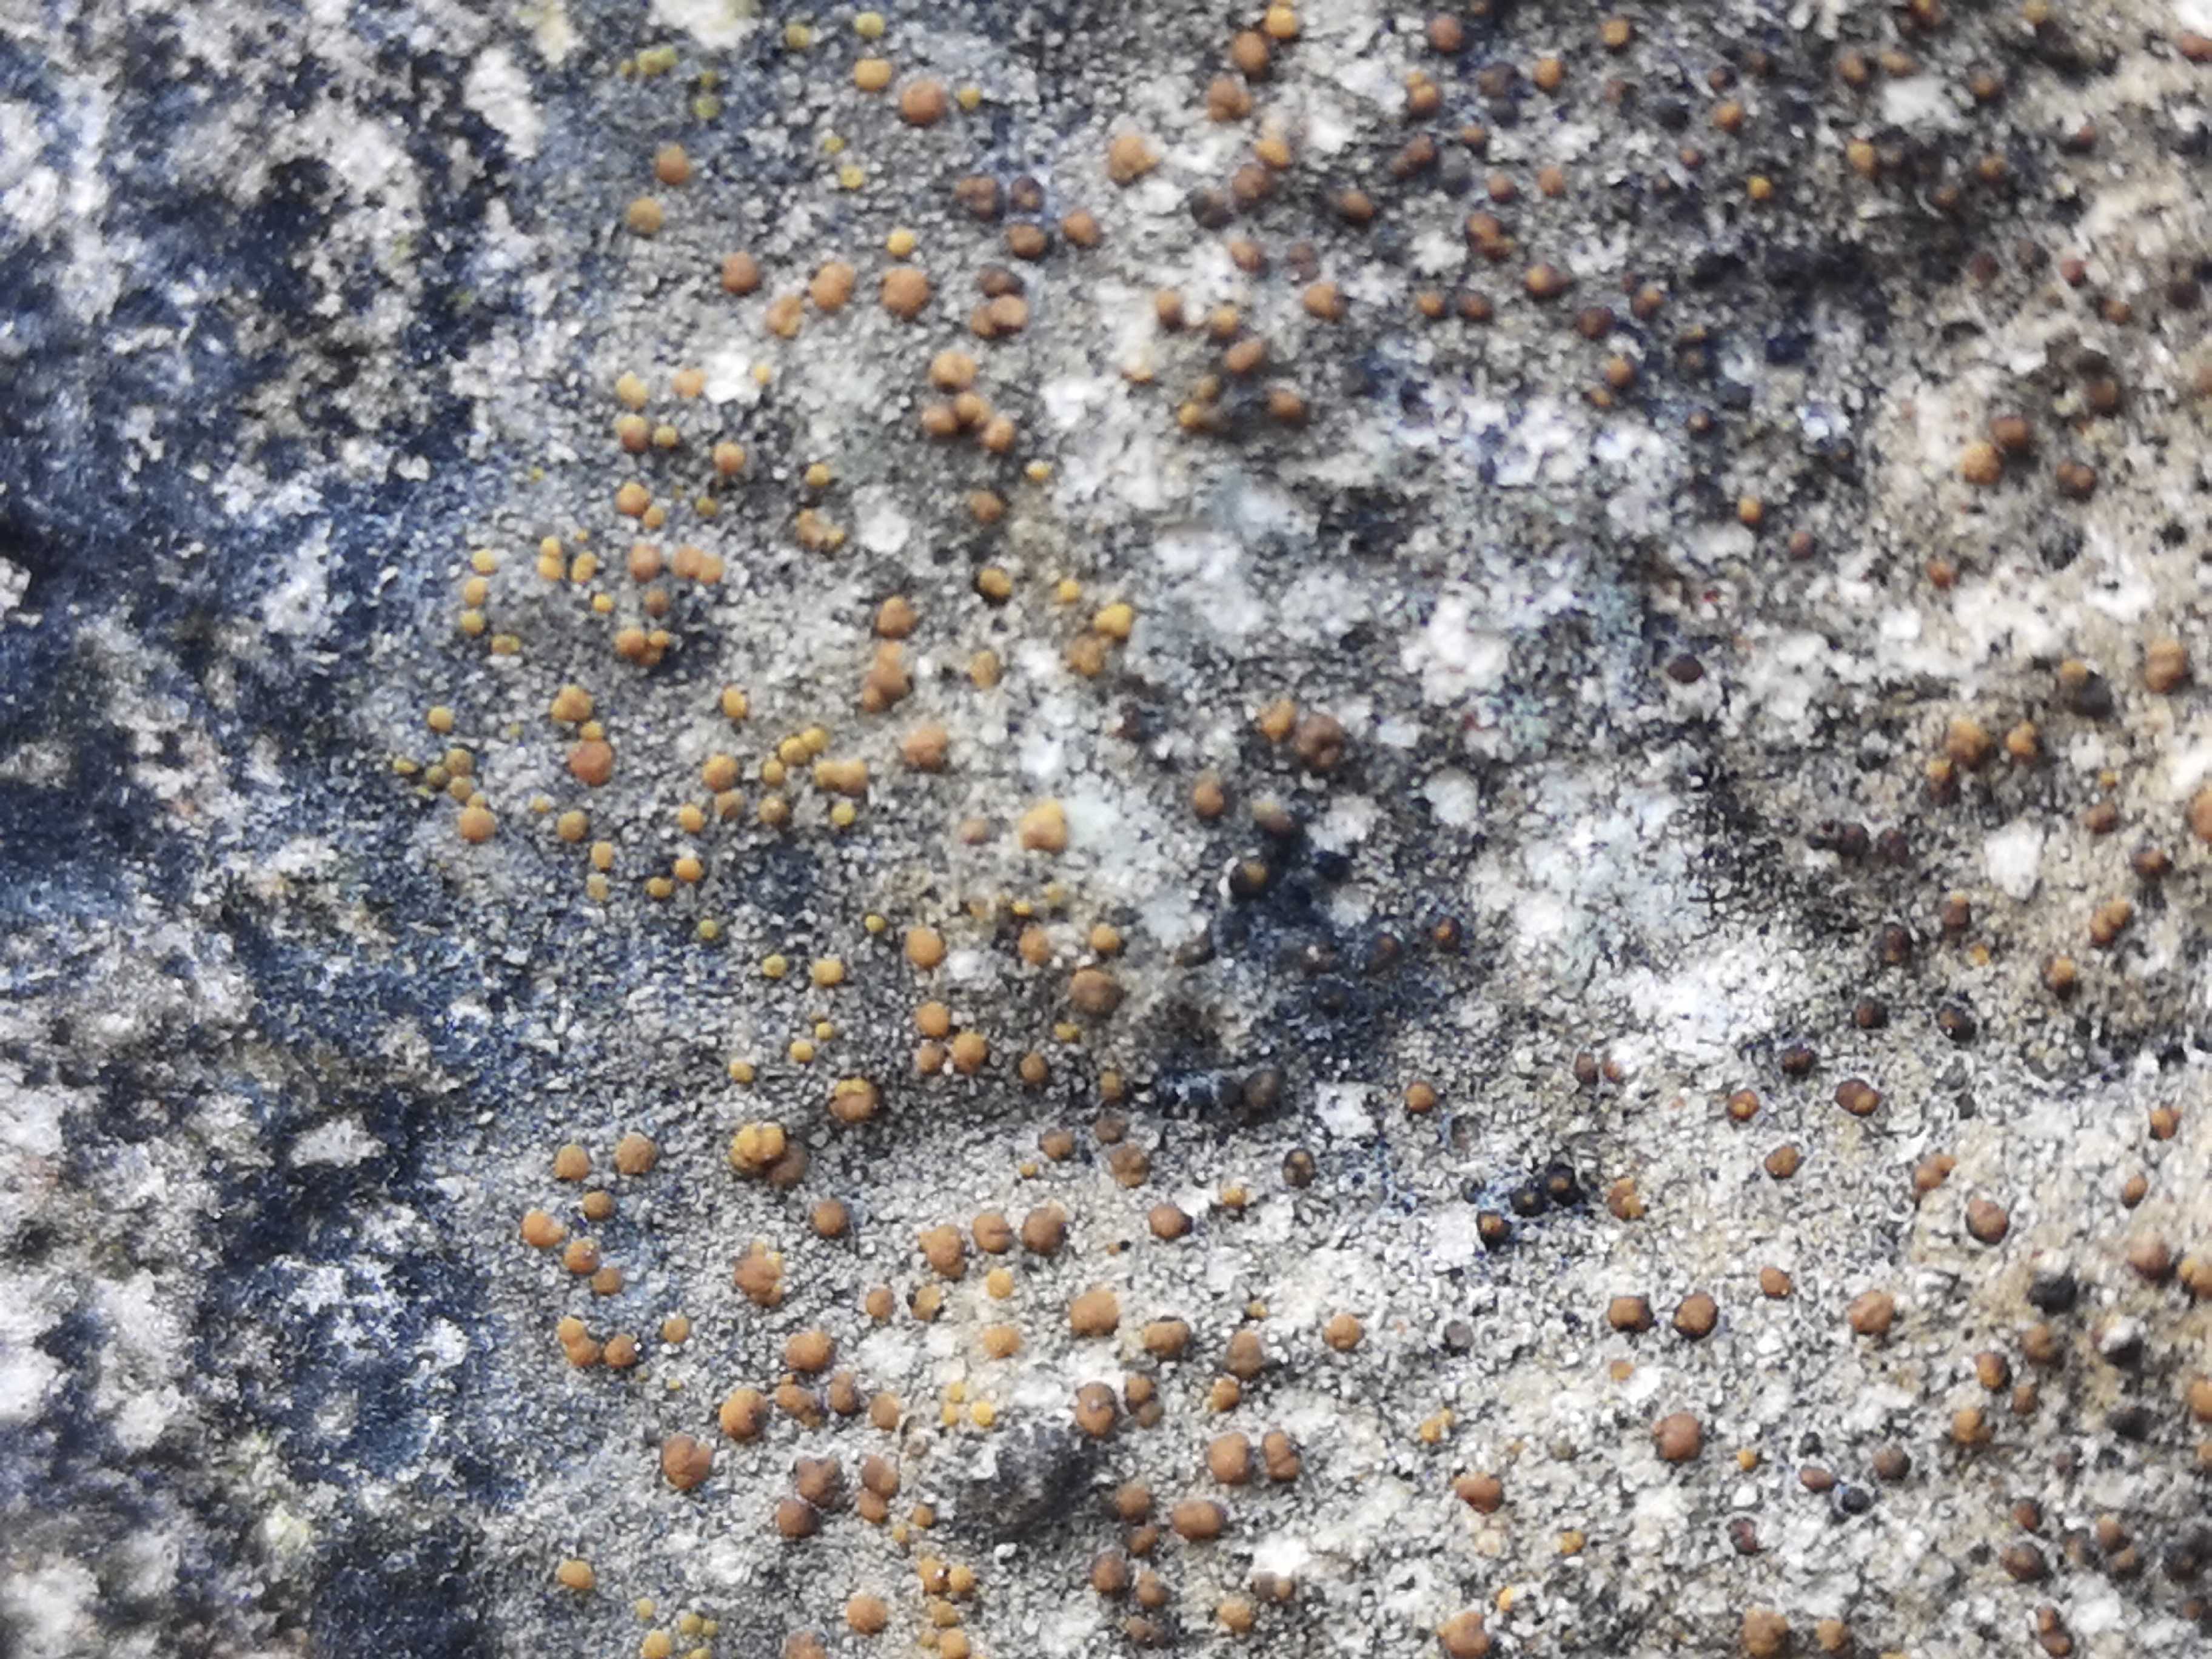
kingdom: Fungi
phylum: Ascomycota
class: Lecanoromycetes
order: Lecanorales
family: Psoraceae
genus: Protoblastenia
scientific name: Protoblastenia rupestris
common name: kalk-gulskivelav
